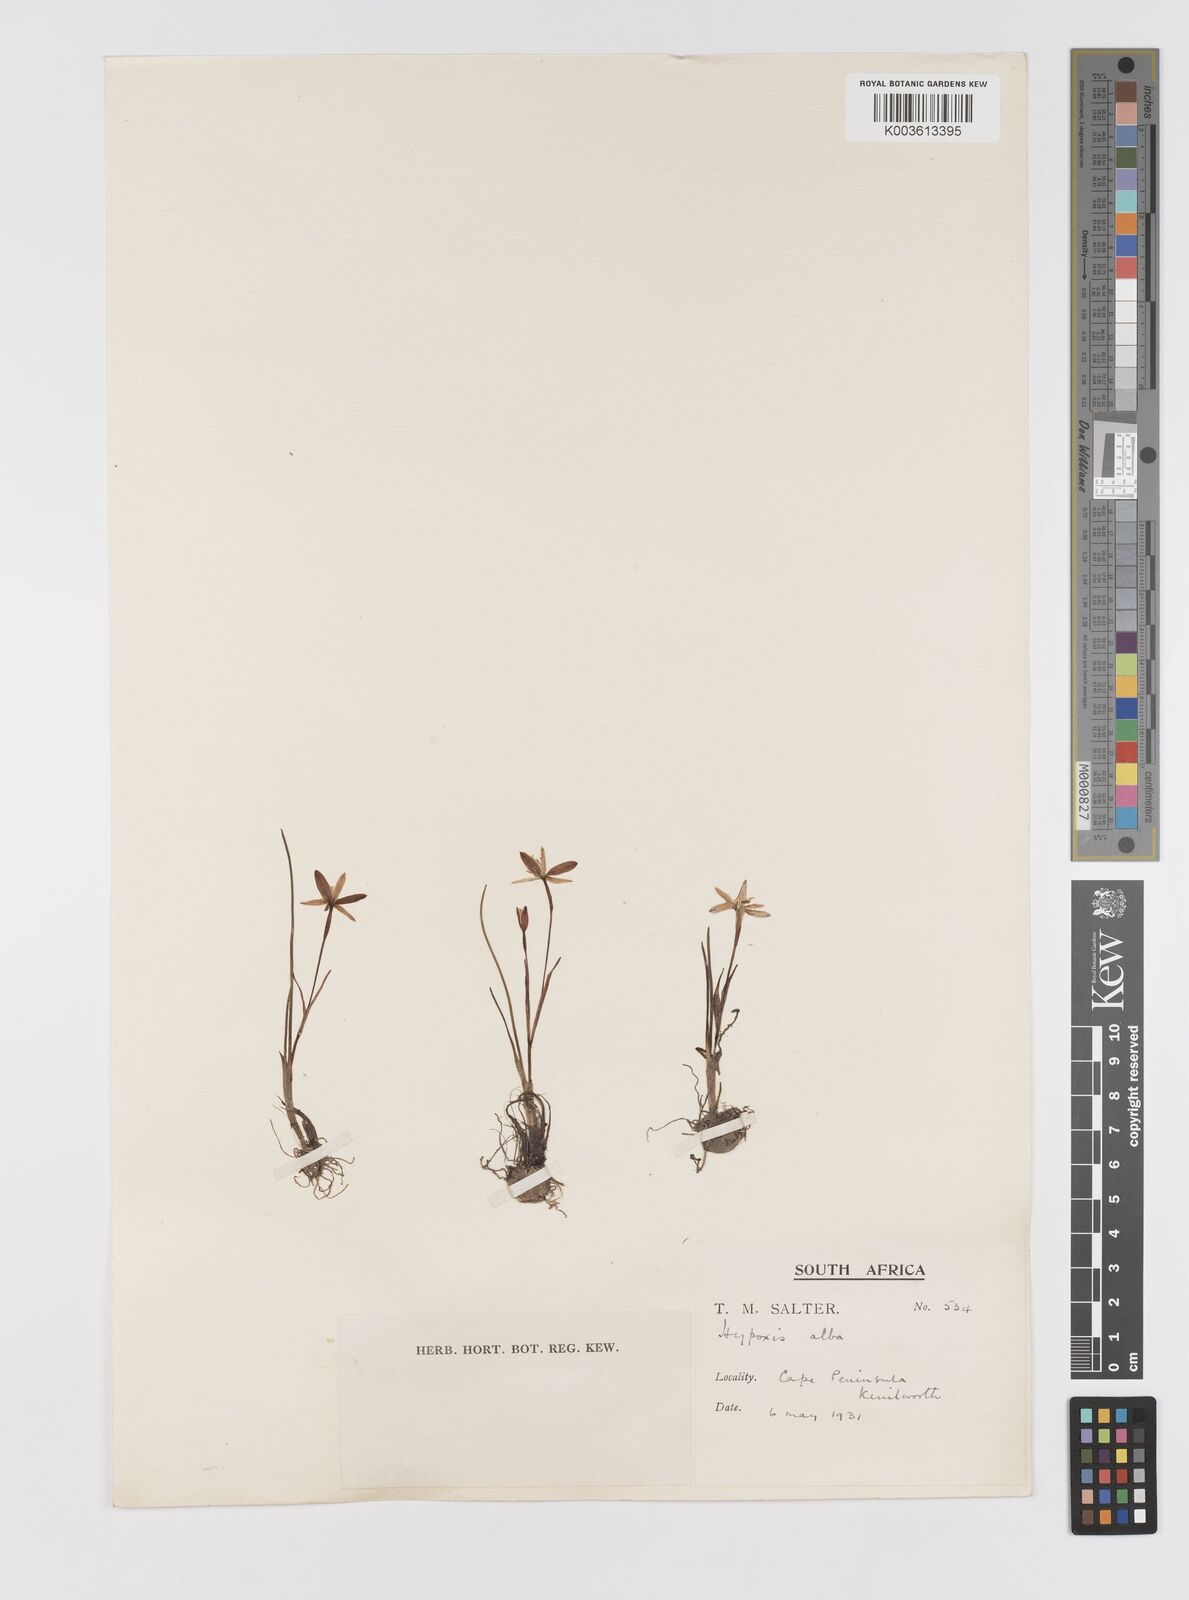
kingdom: Plantae
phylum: Tracheophyta
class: Liliopsida
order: Asparagales
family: Hypoxidaceae
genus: Pauridia
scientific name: Pauridia alba
